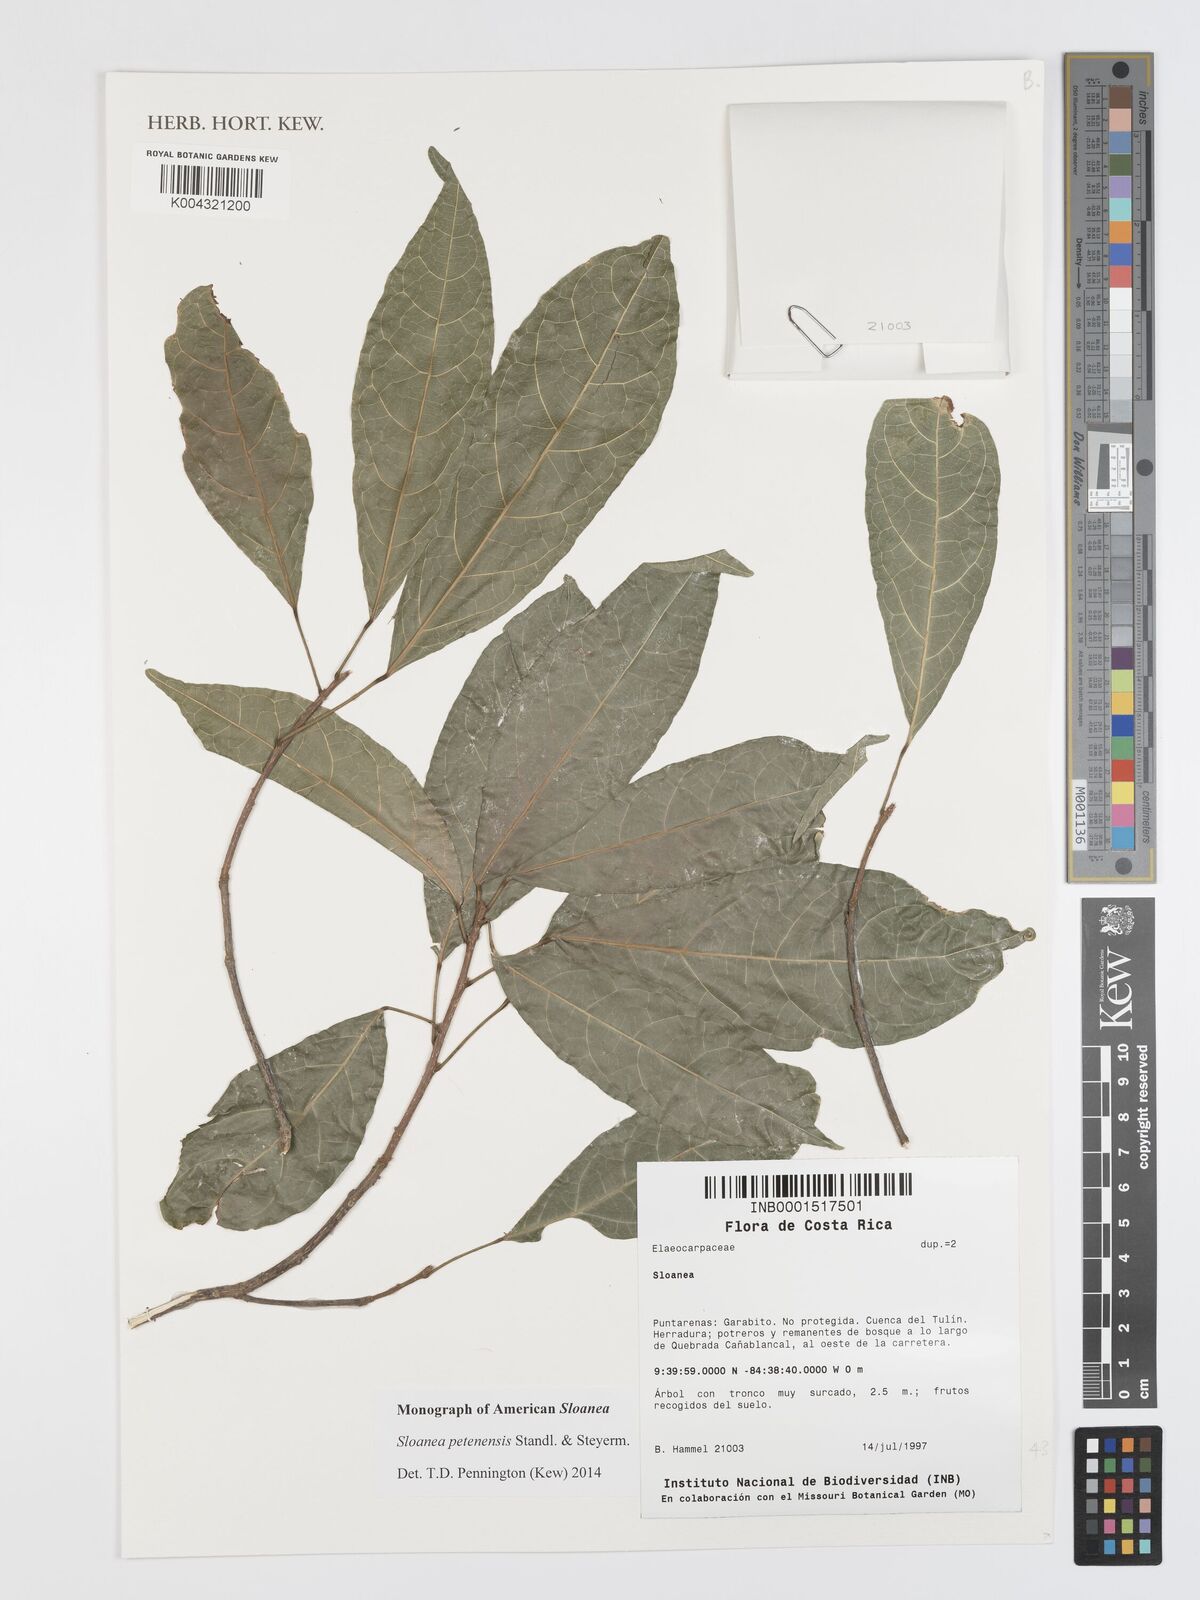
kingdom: Plantae
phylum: Tracheophyta
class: Magnoliopsida
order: Oxalidales
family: Elaeocarpaceae
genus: Sloanea
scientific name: Sloanea petenensis
